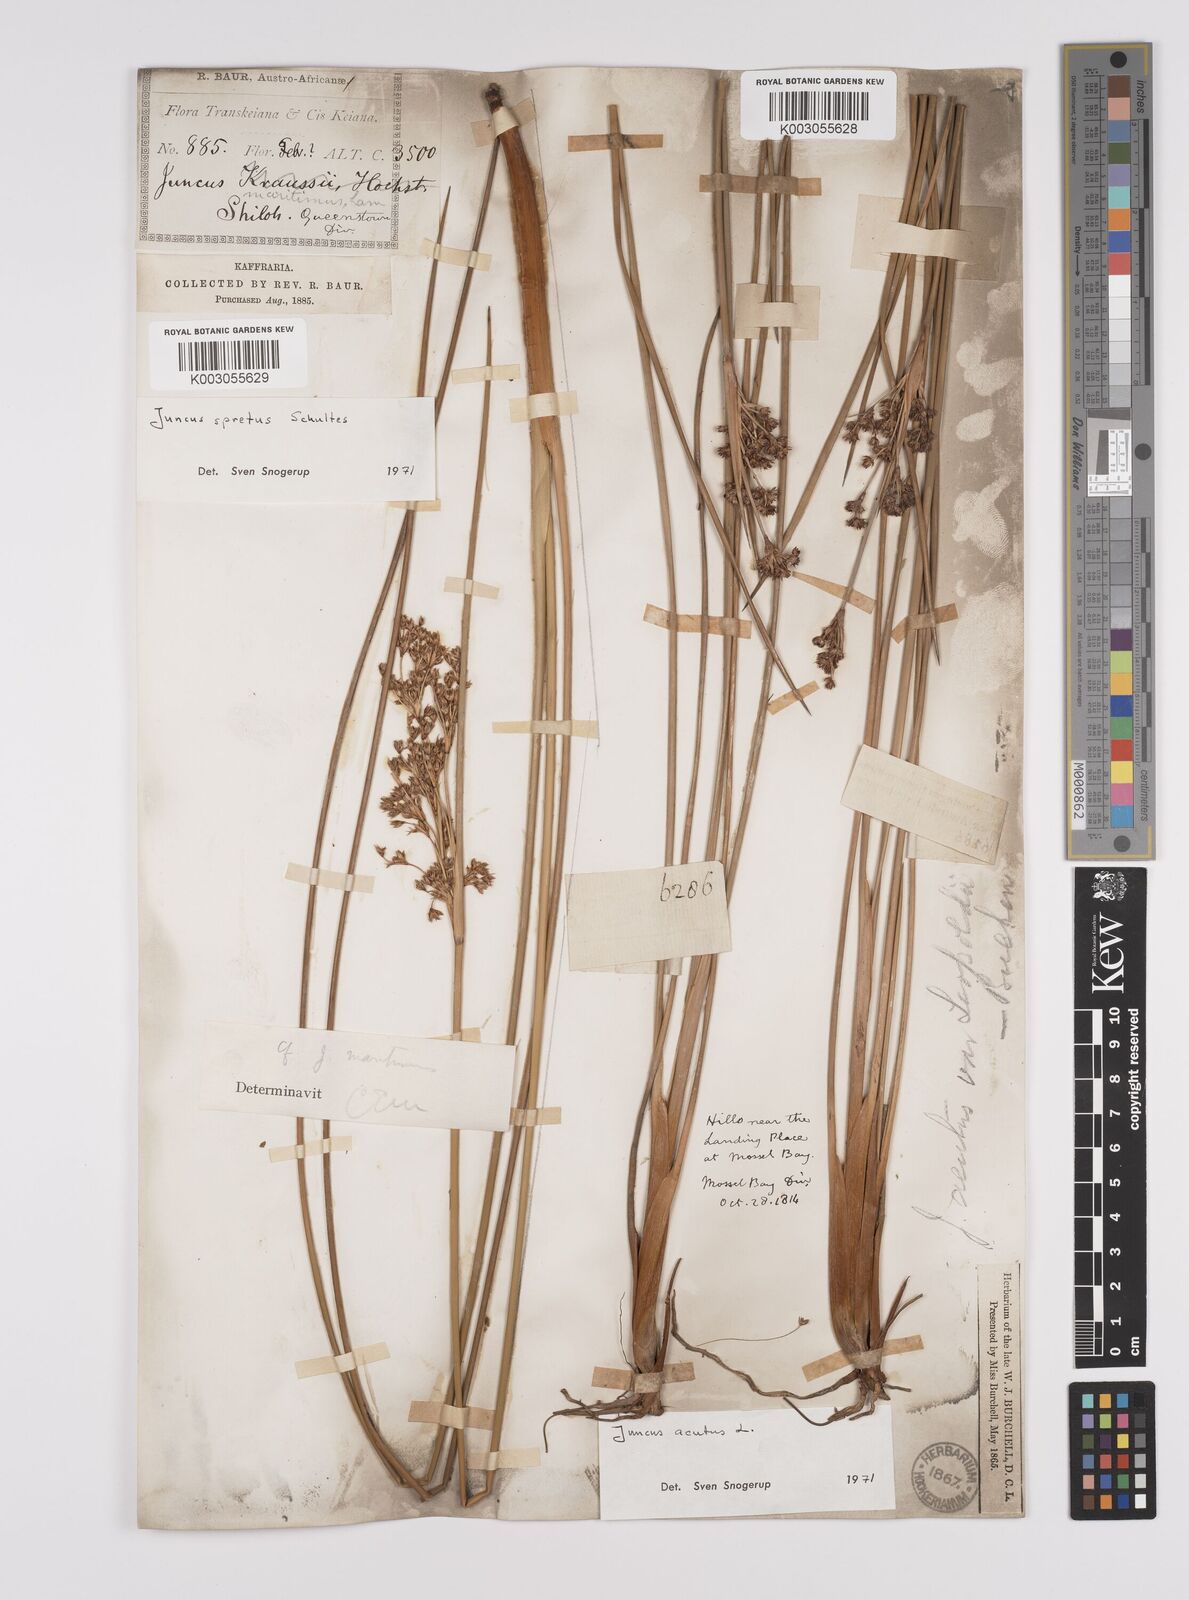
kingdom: Plantae
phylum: Tracheophyta
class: Liliopsida
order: Poales
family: Juncaceae
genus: Juncus
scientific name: Juncus acutus
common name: Sharp rush
